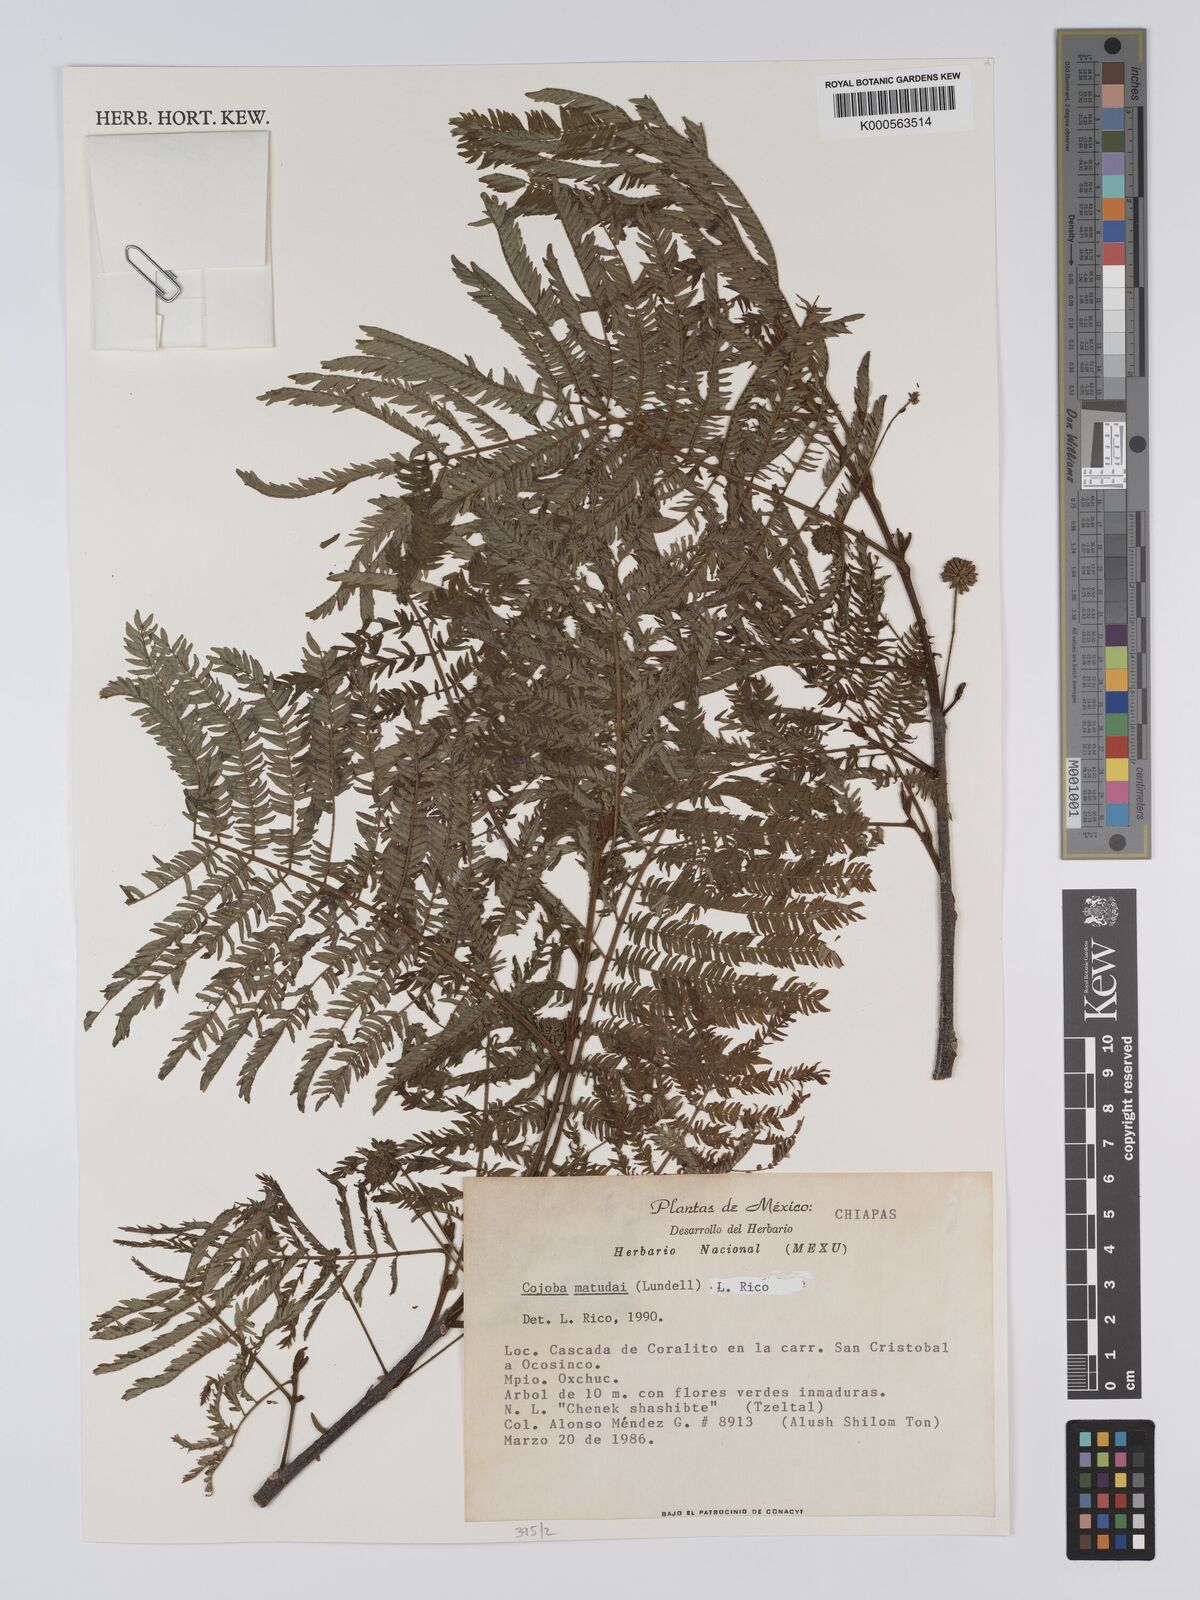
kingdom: Plantae
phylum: Tracheophyta
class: Magnoliopsida
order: Fabales
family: Fabaceae
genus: Cojoba
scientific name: Cojoba arborea
